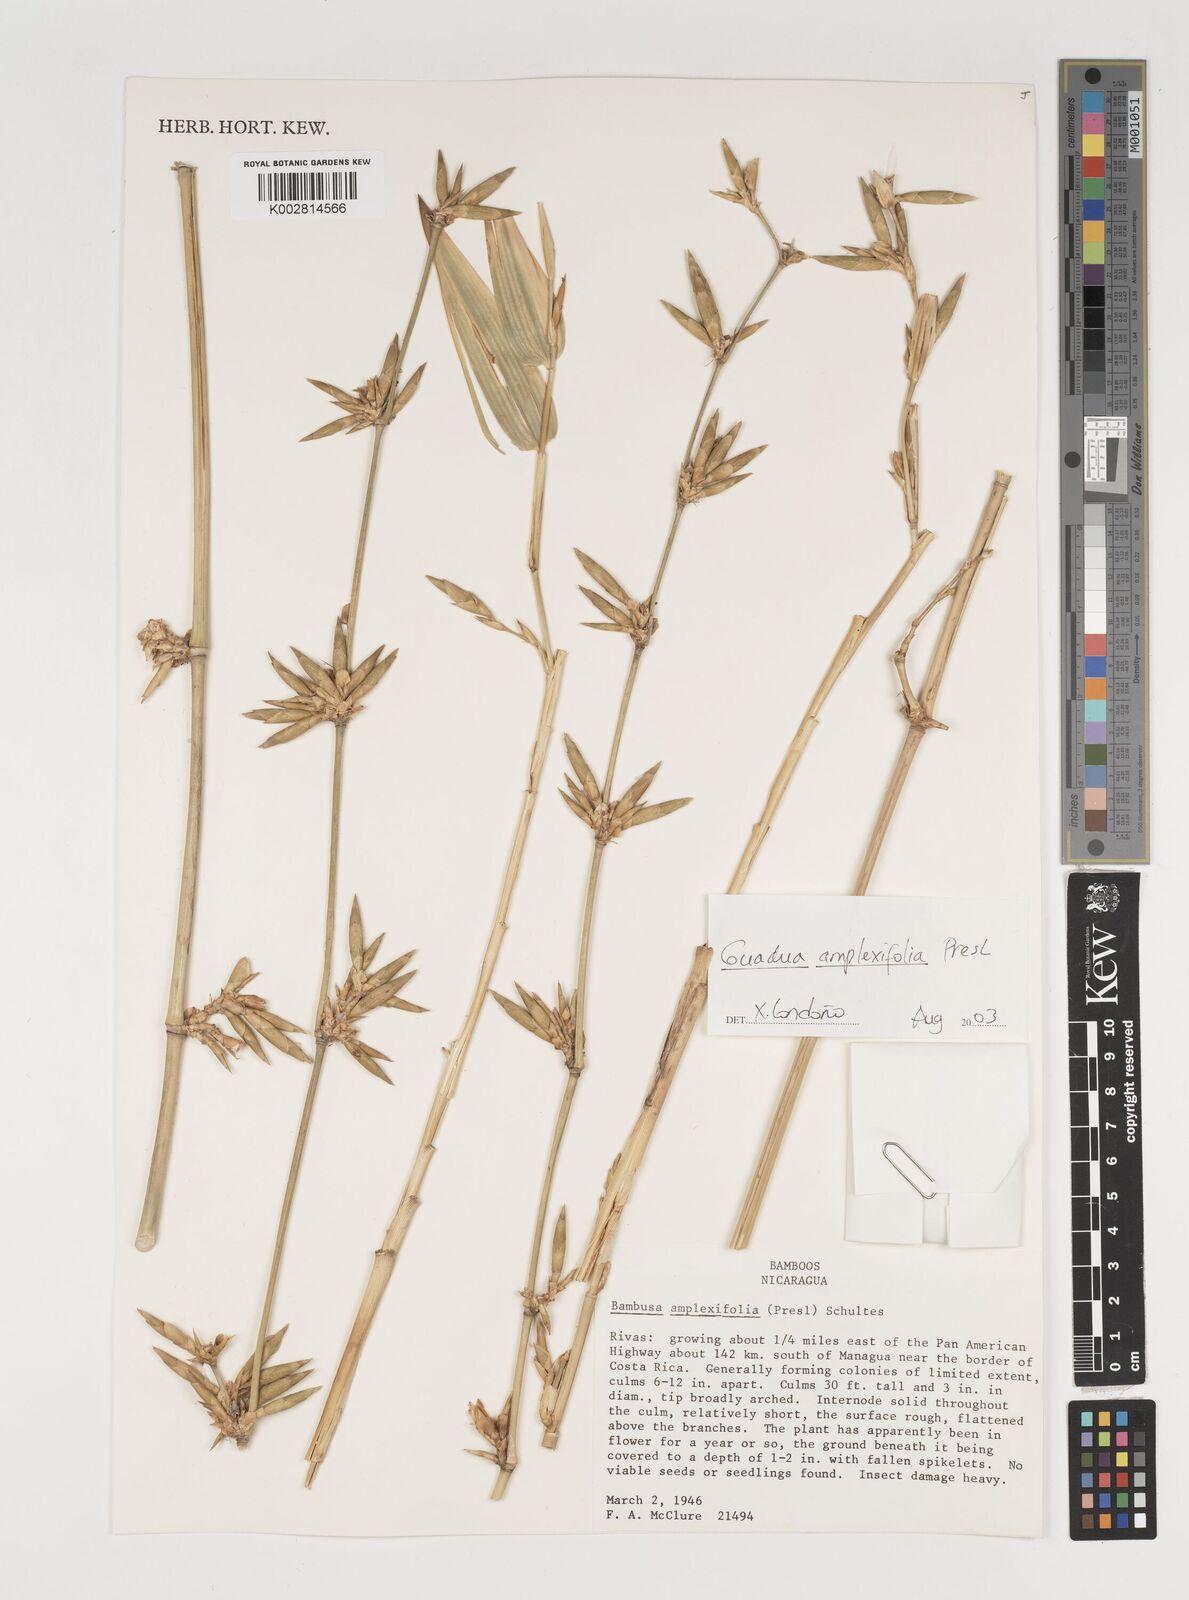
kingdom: Plantae
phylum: Tracheophyta
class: Liliopsida
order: Poales
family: Poaceae
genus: Guadua
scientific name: Guadua amplexifolia
